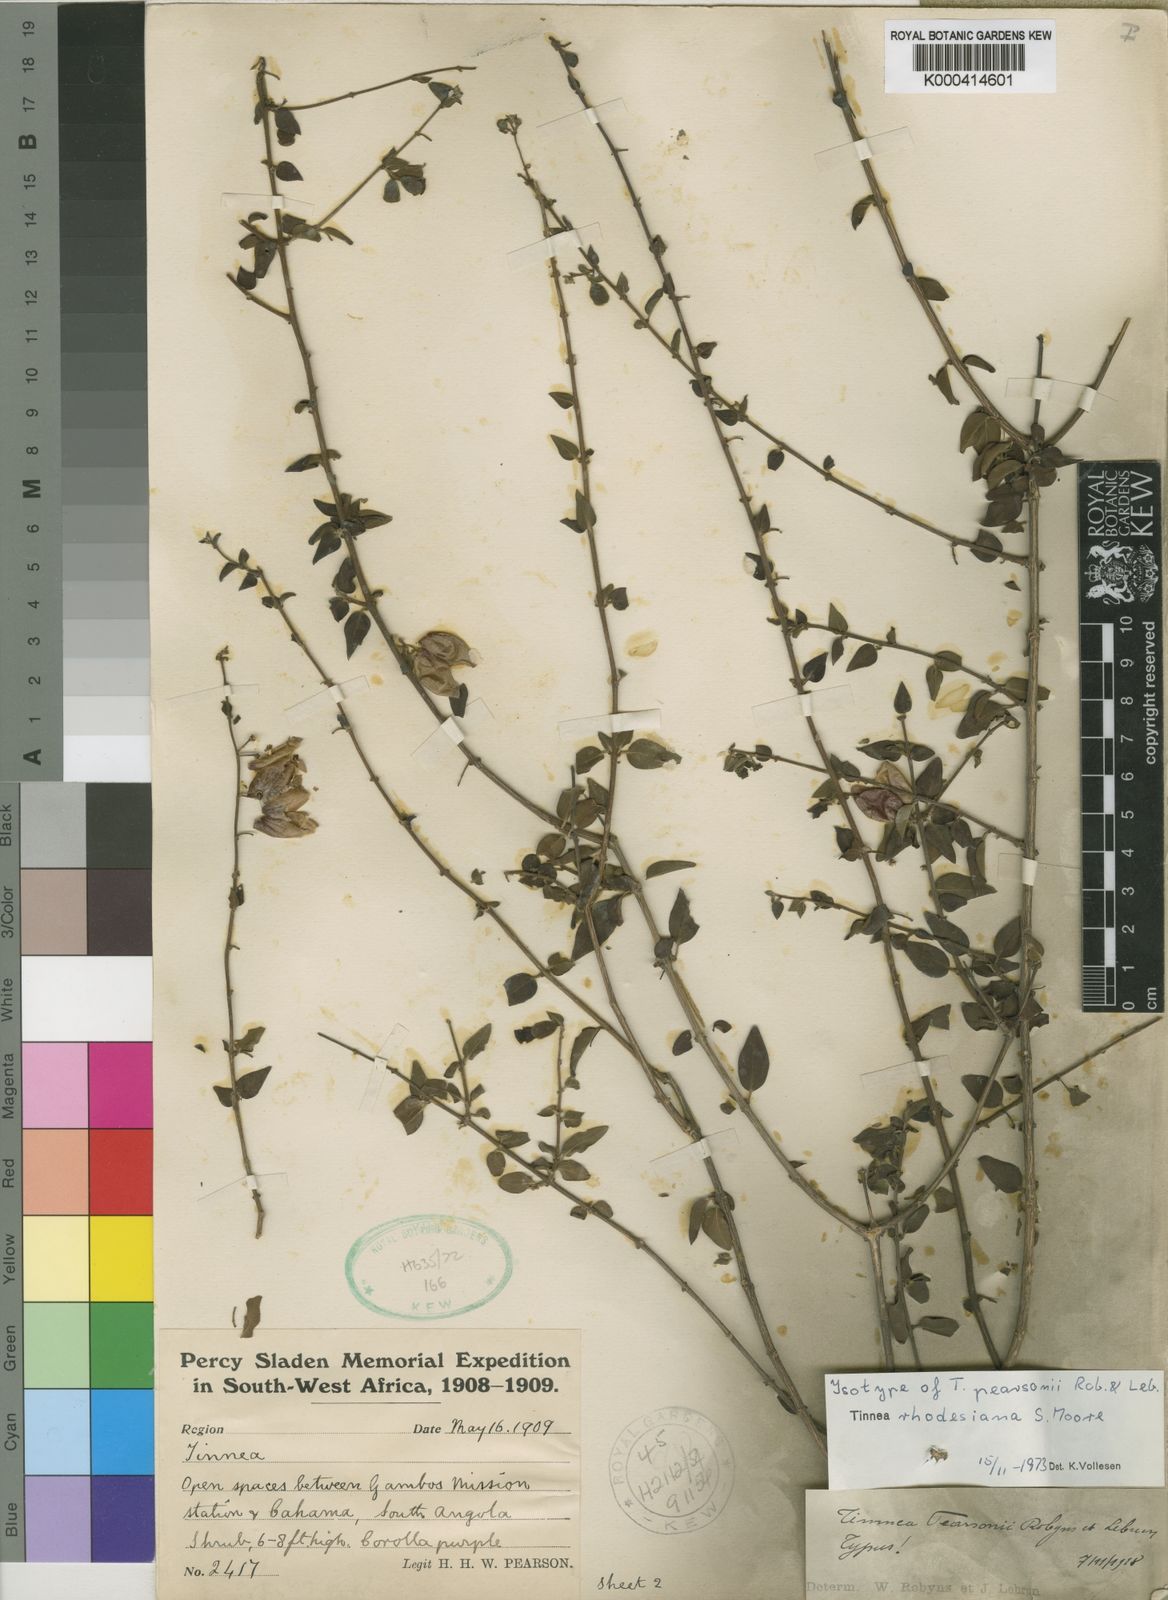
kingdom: Plantae
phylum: Tracheophyta
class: Magnoliopsida
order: Lamiales
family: Lamiaceae
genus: Tinnea
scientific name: Tinnea rhodesiana
